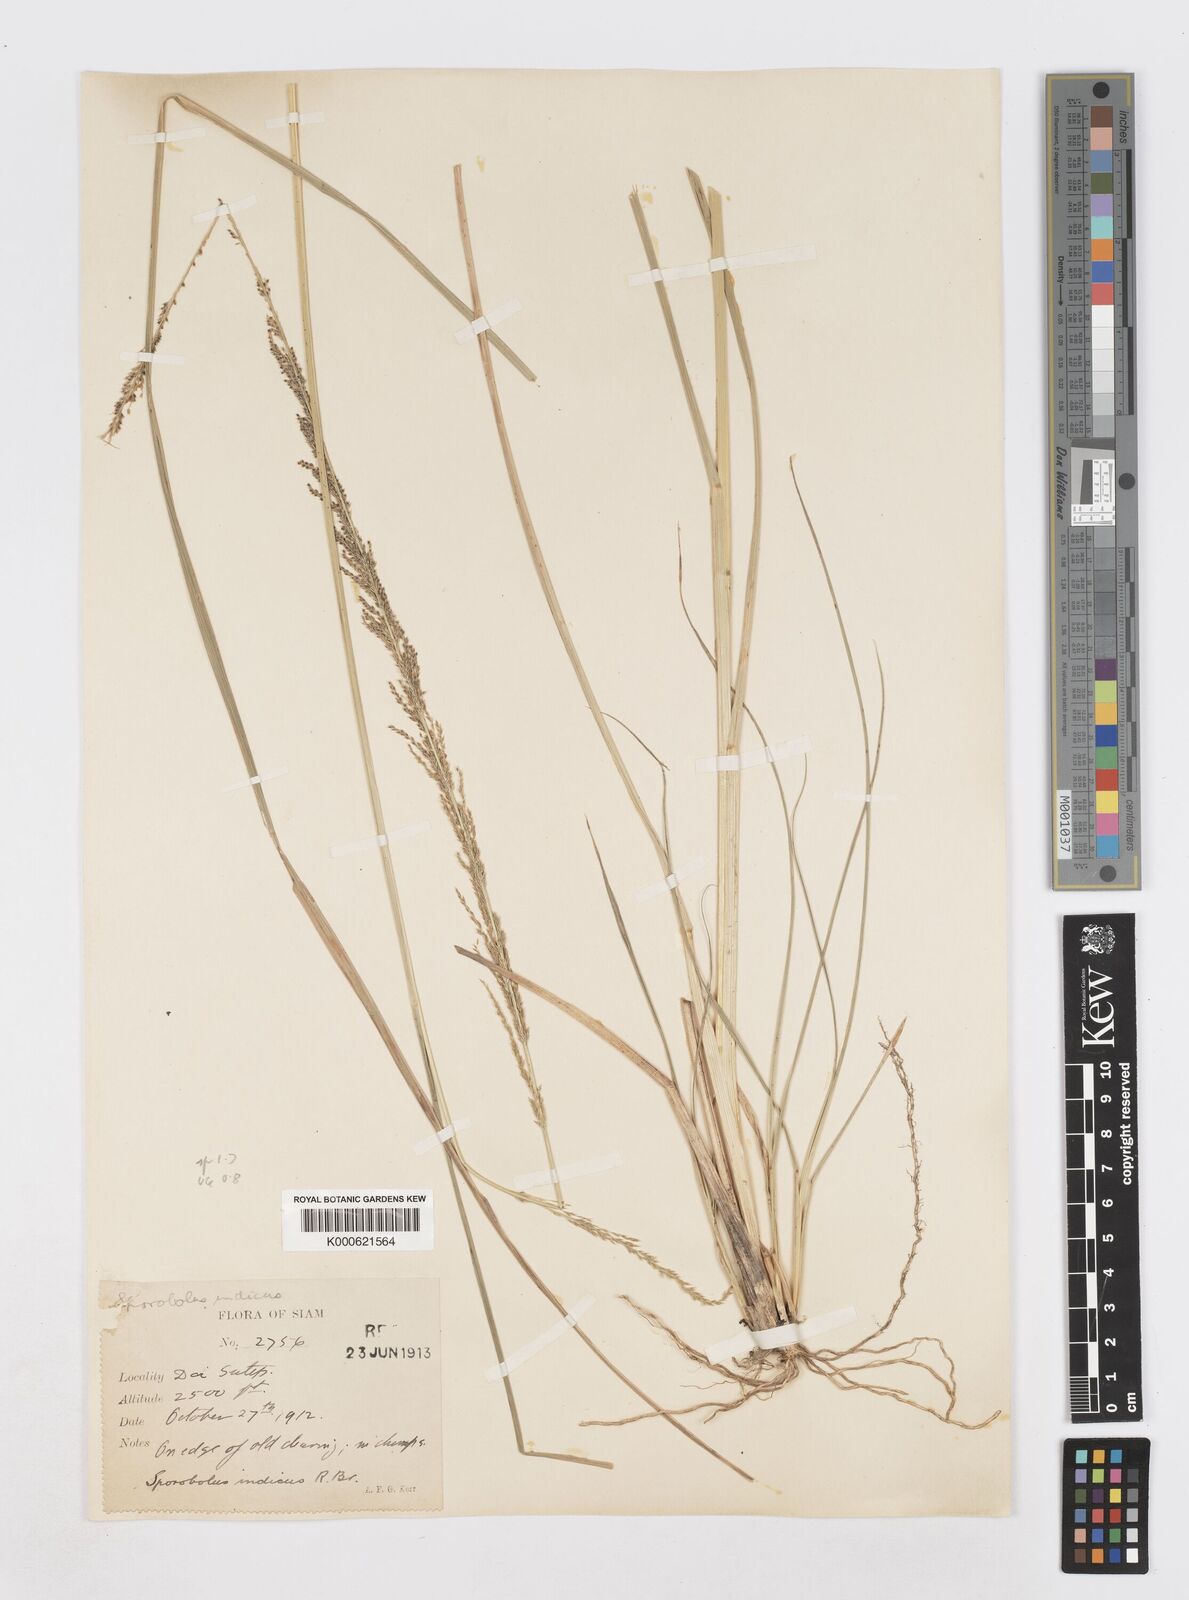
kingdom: Plantae
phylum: Tracheophyta
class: Liliopsida
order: Poales
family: Poaceae
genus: Sporobolus
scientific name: Sporobolus indicus
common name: Smut grass
